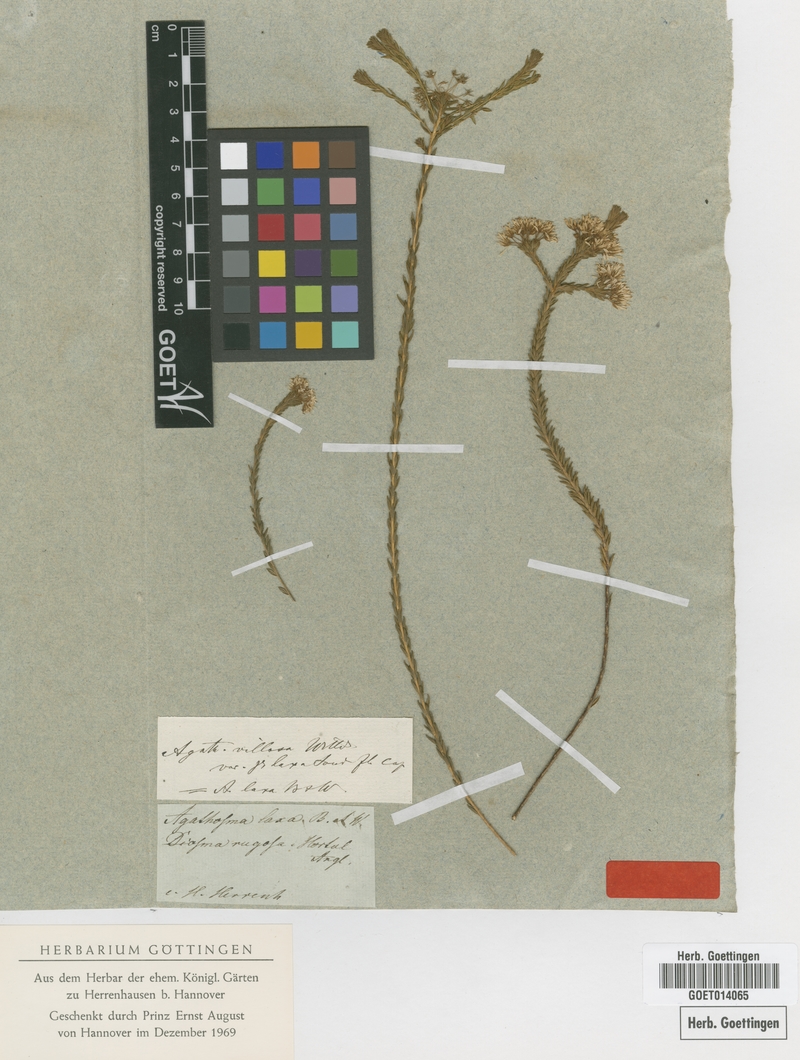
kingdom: Plantae
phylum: Tracheophyta
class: Magnoliopsida
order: Sapindales
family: Rutaceae
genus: Agathosma
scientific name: Agathosma glabrata
